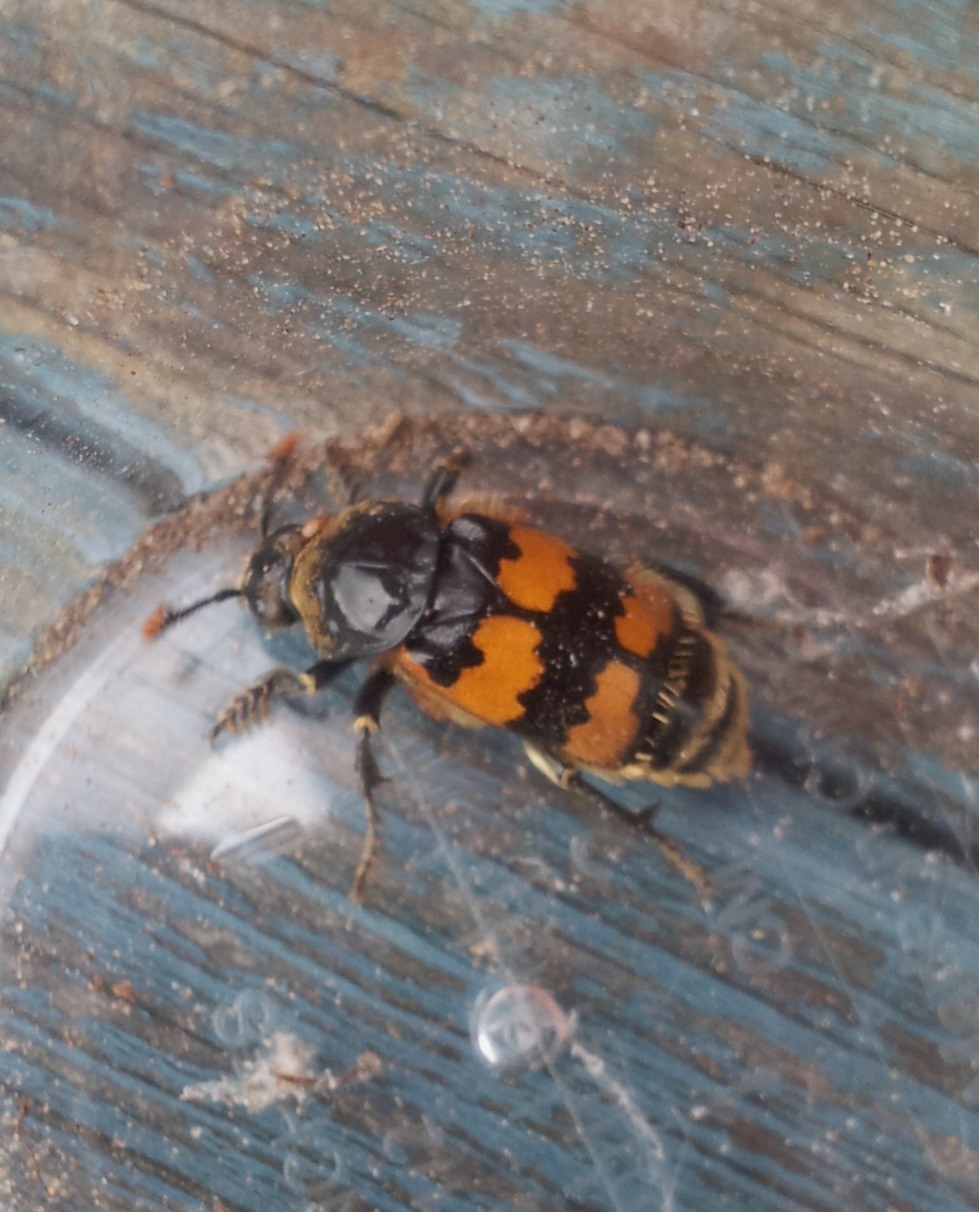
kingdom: Animalia
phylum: Arthropoda
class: Insecta
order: Coleoptera
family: Staphylinidae
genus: Nicrophorus
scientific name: Nicrophorus vespillo
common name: Krumbenet ådselgraver
